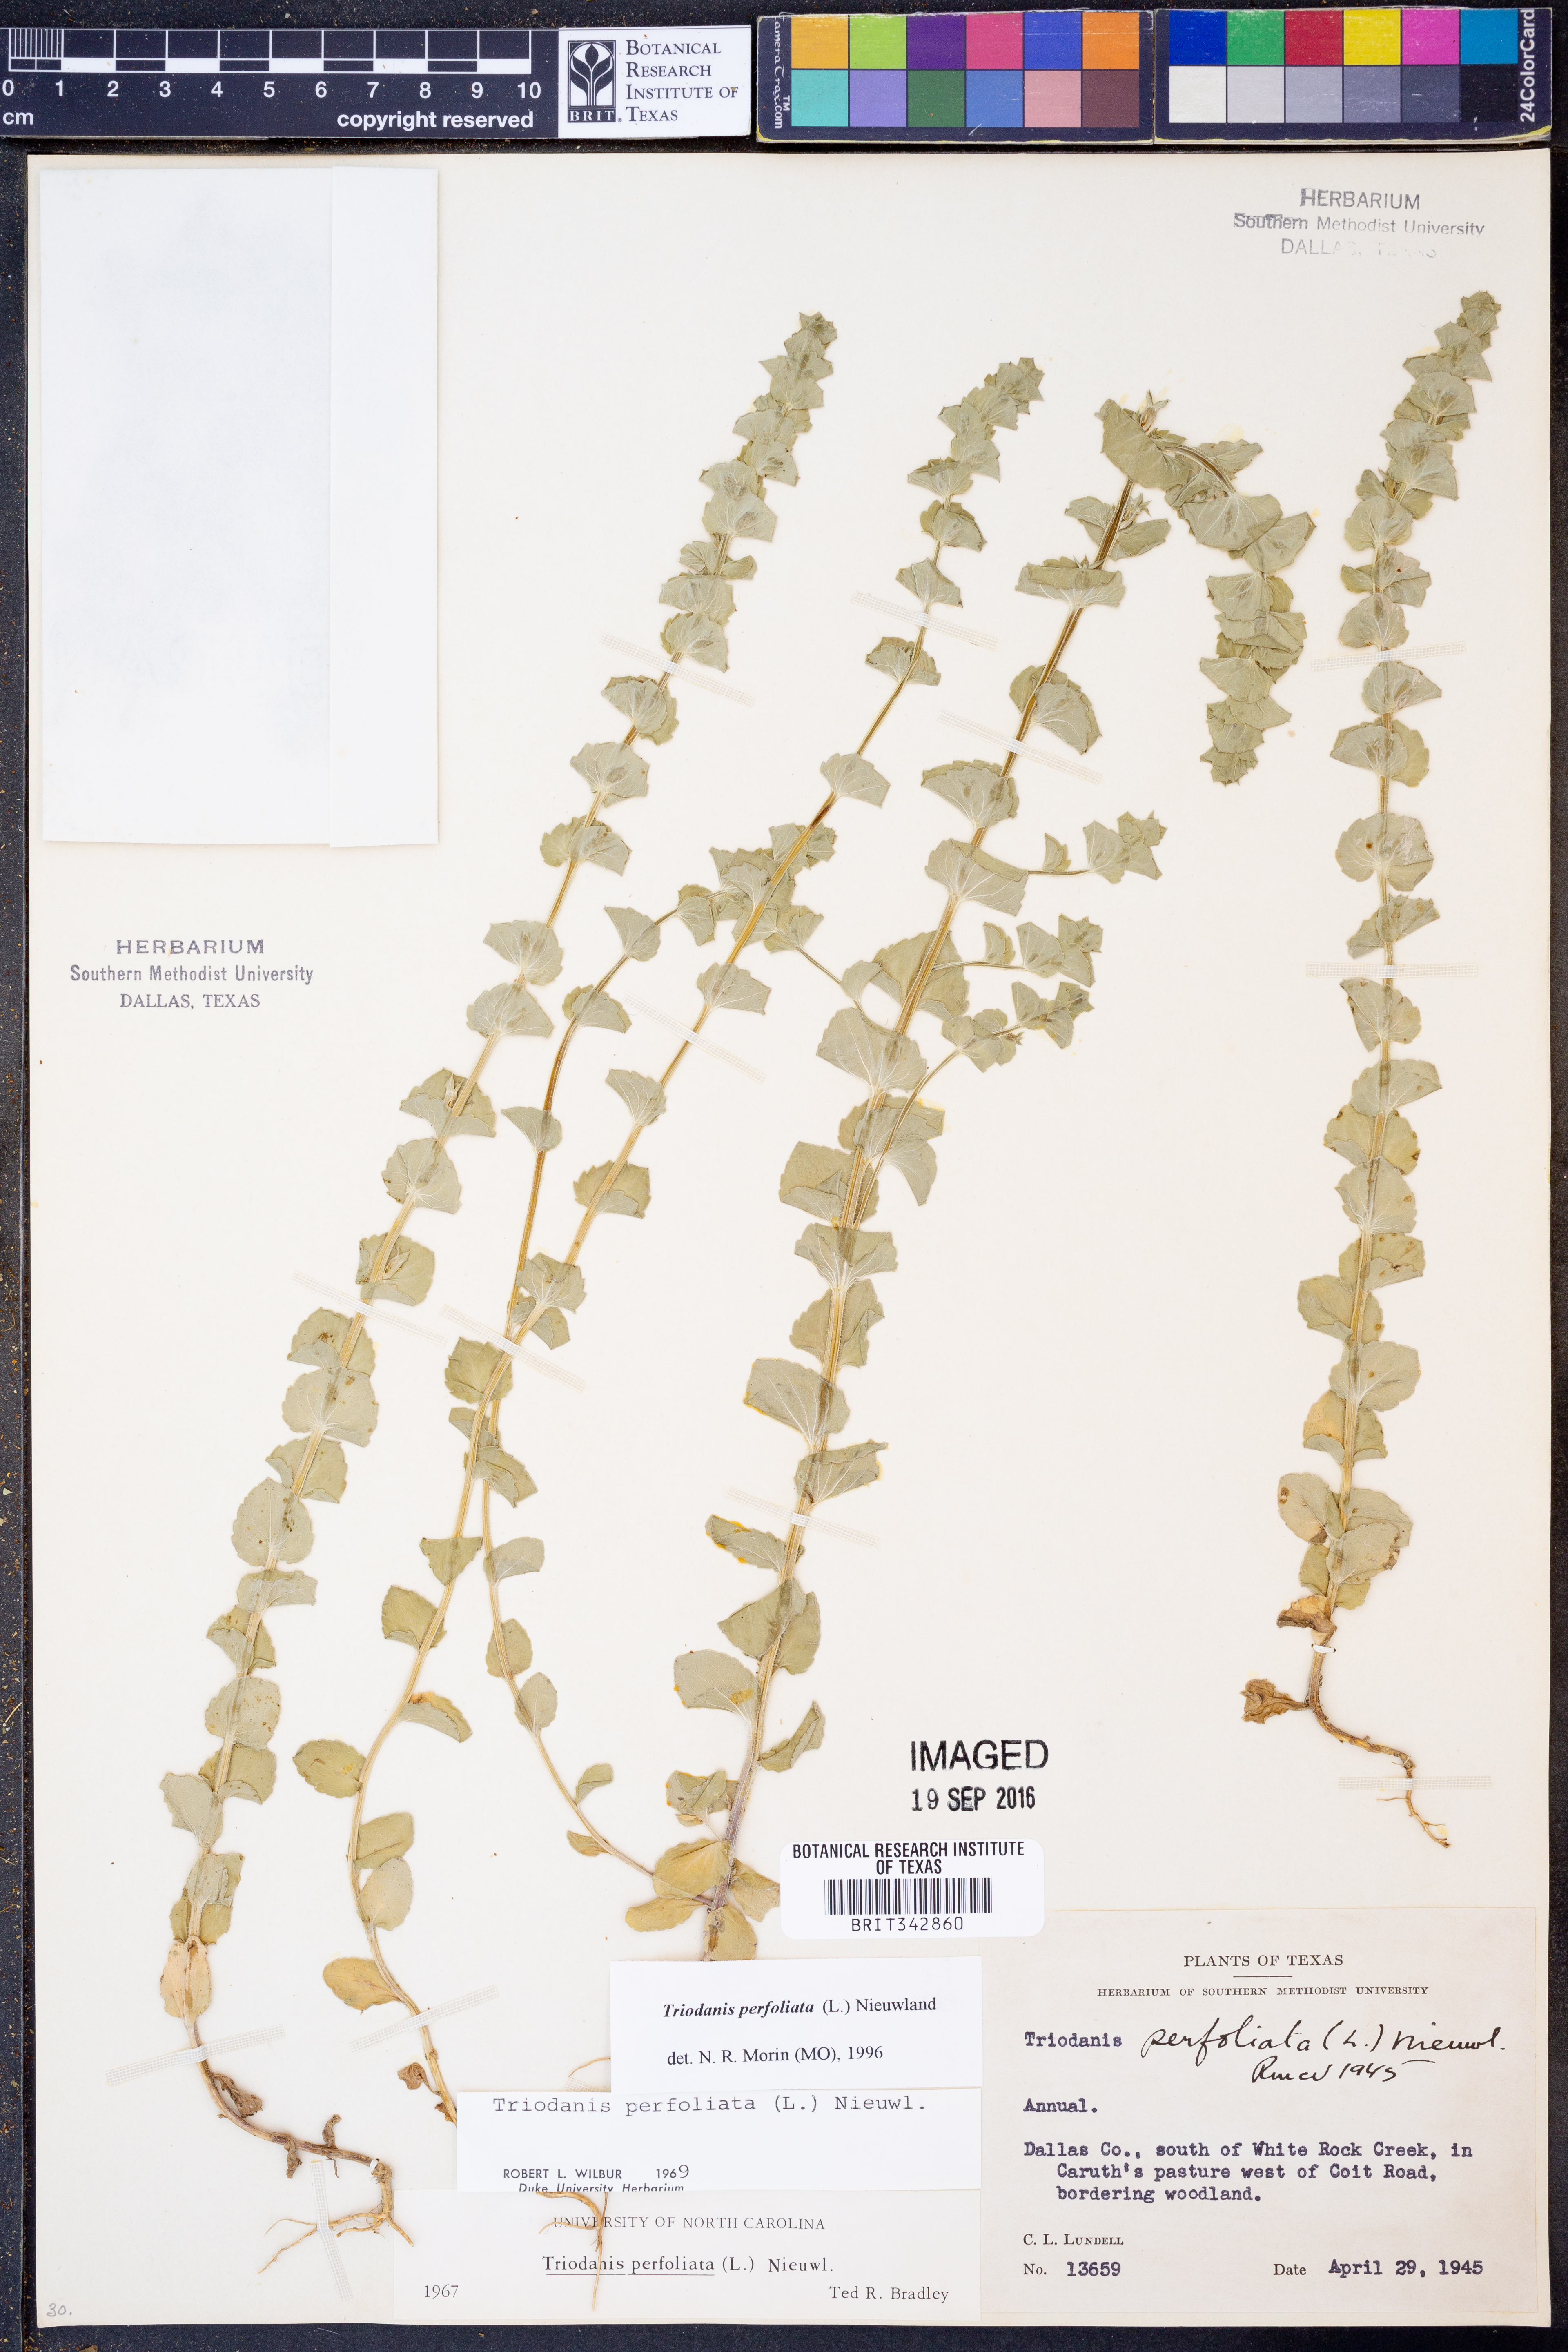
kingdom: Plantae
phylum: Tracheophyta
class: Magnoliopsida
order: Asterales
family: Campanulaceae
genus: Triodanis
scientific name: Triodanis perfoliata
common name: Clasping venus' looking-glass
